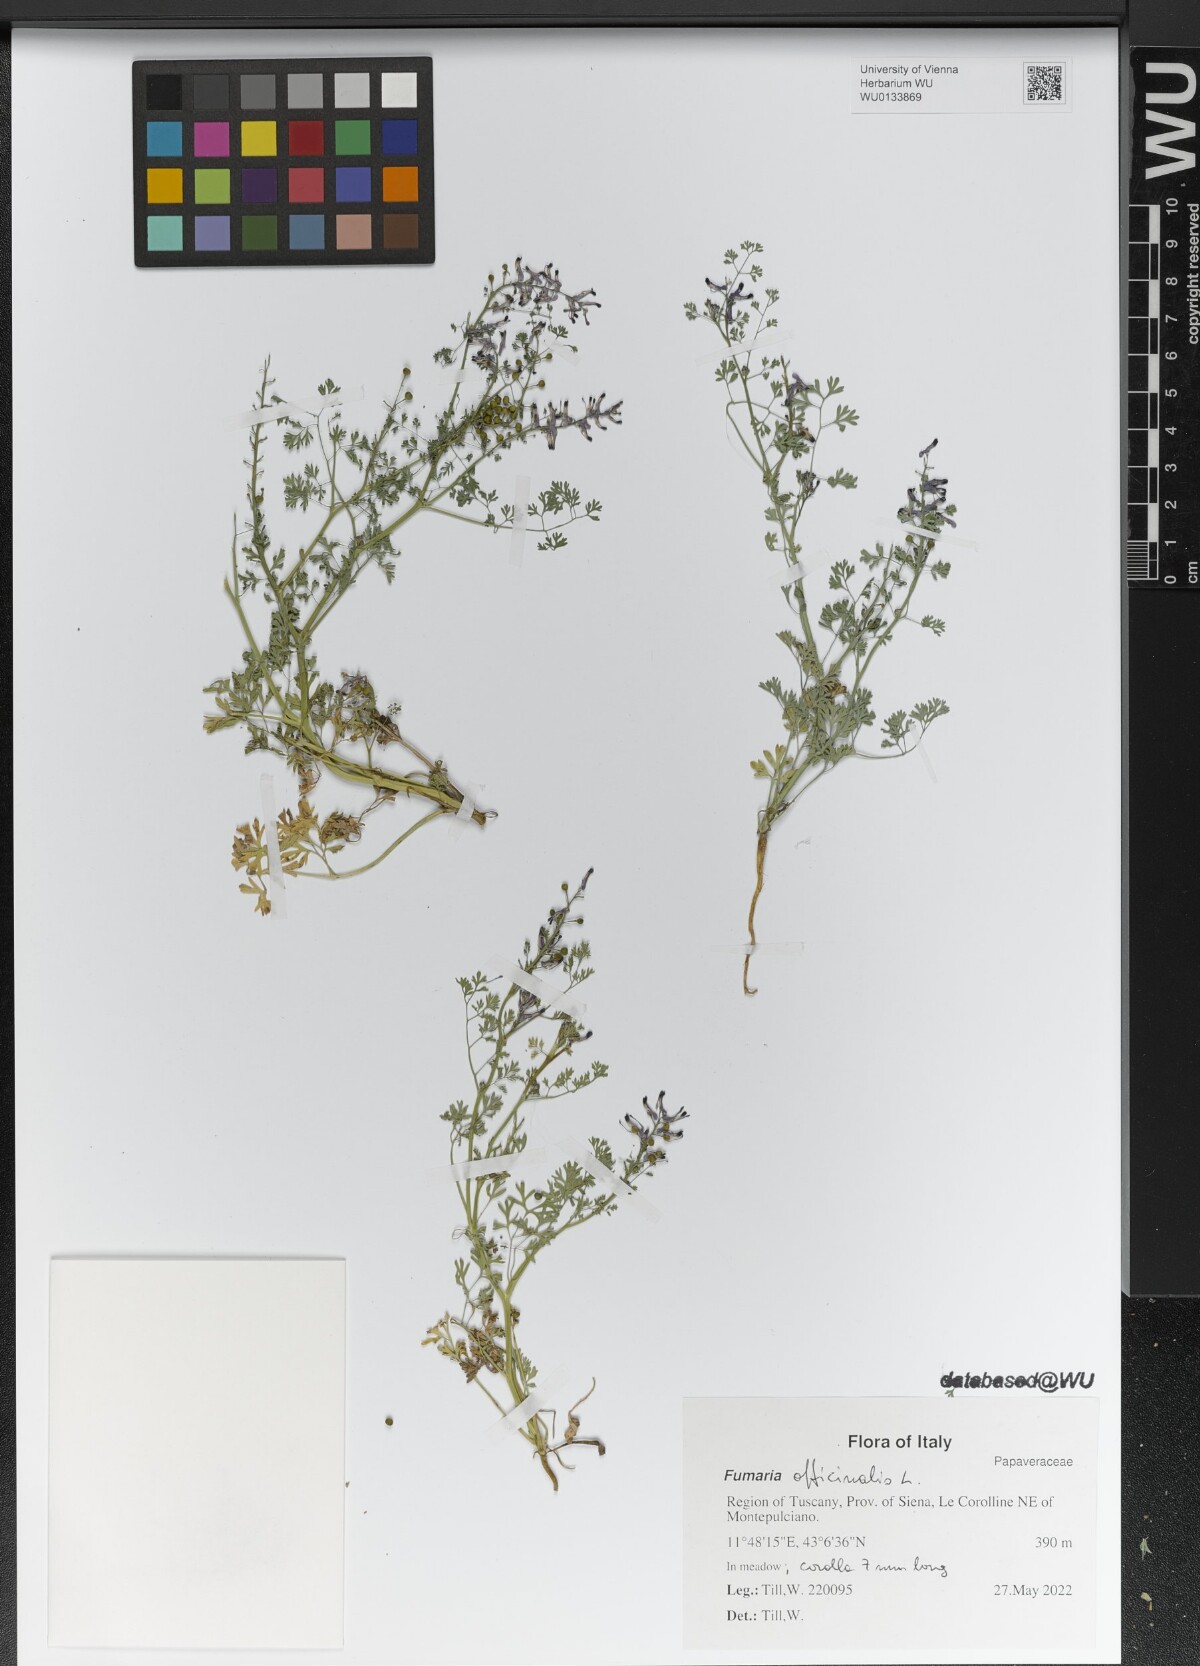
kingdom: Plantae
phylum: Tracheophyta
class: Magnoliopsida
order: Ranunculales
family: Papaveraceae
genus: Fumaria
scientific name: Fumaria officinalis
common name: Common fumitory
